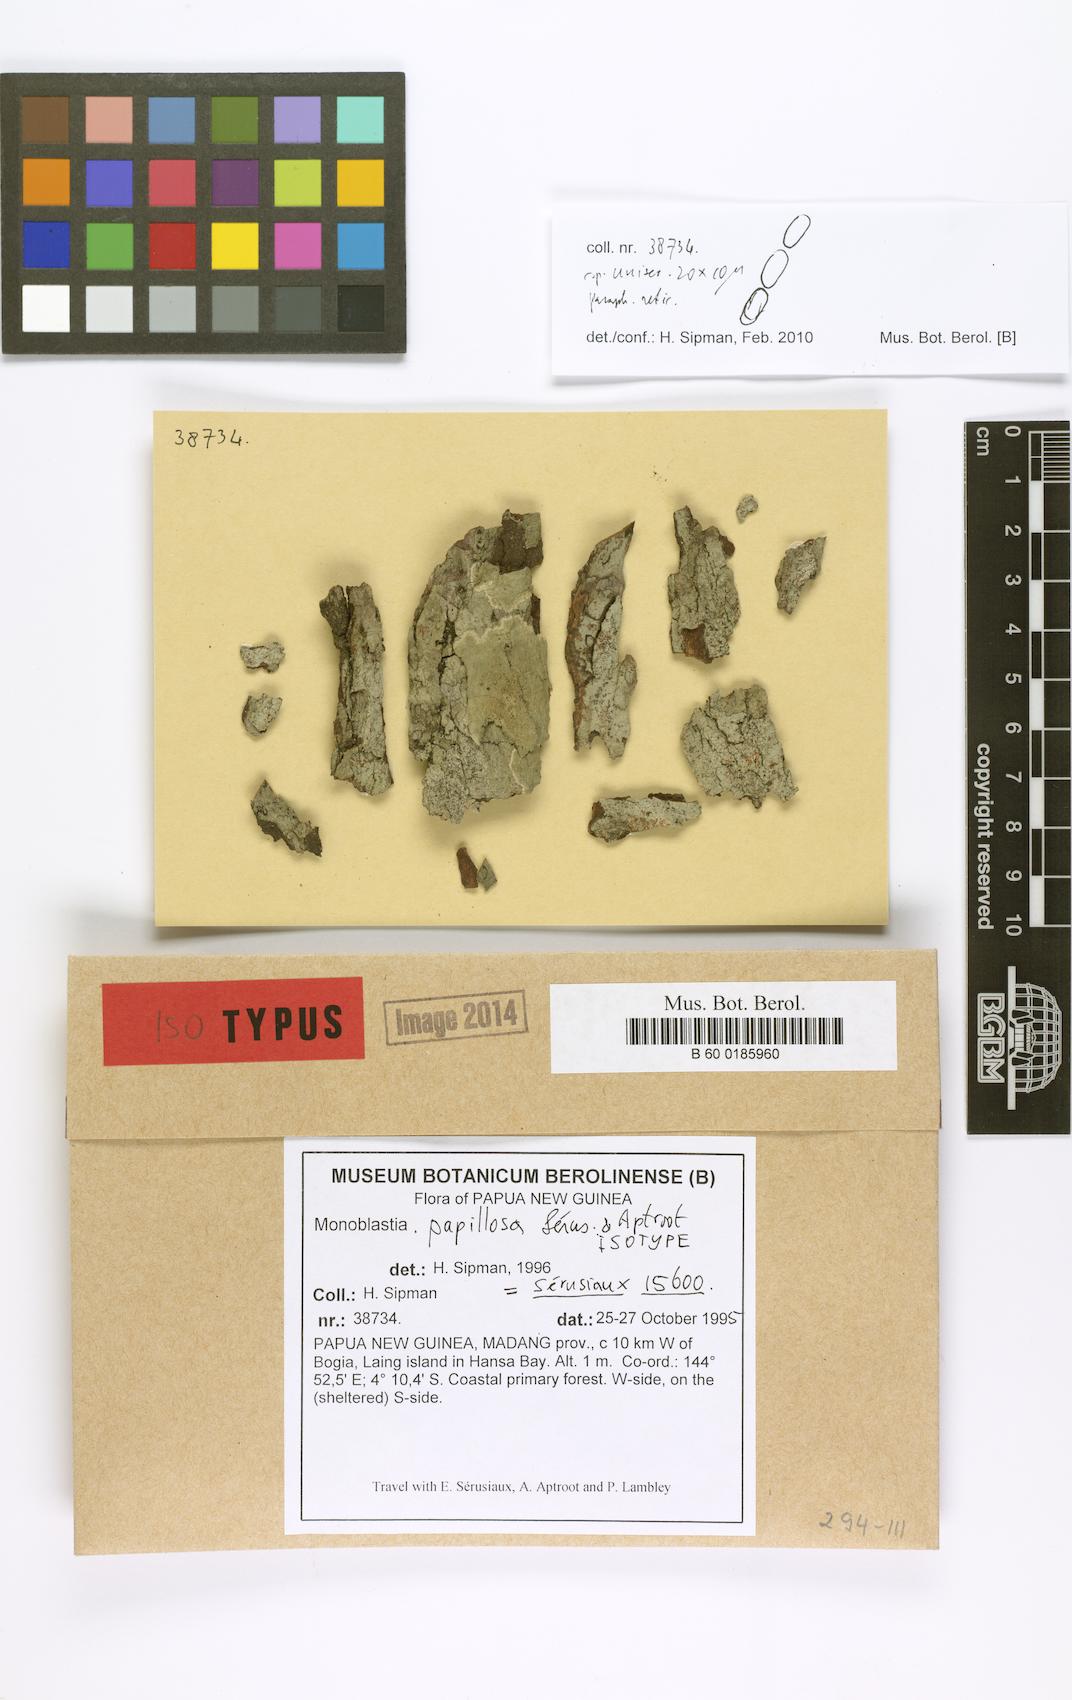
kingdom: Fungi
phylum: Ascomycota
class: Dothideomycetes
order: Monoblastiales
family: Monoblastiaceae
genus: Monoblastia
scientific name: Monoblastia papillosa
